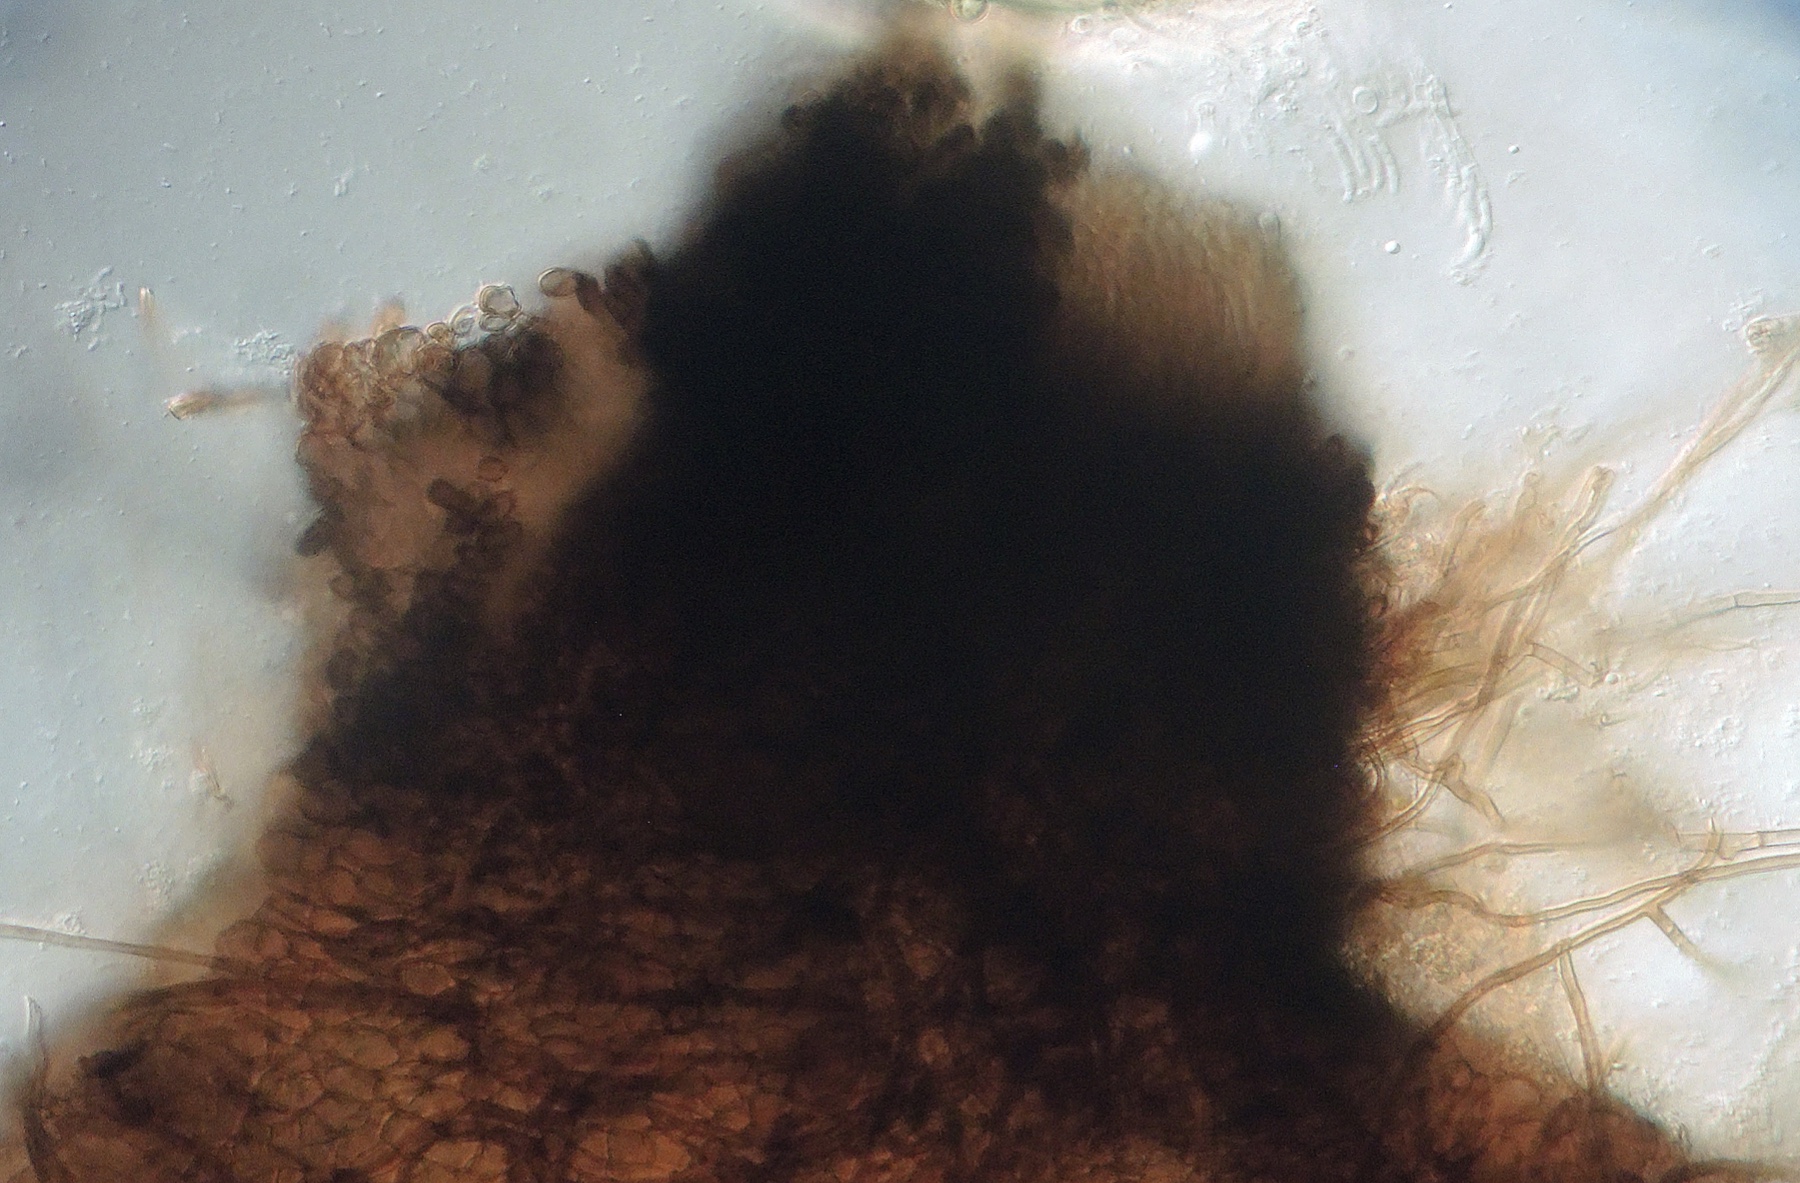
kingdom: Fungi
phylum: Ascomycota
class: Sordariomycetes
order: Sordariales
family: Neoschizotheciaceae
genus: Cercophora
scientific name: Cercophora mirabilis
